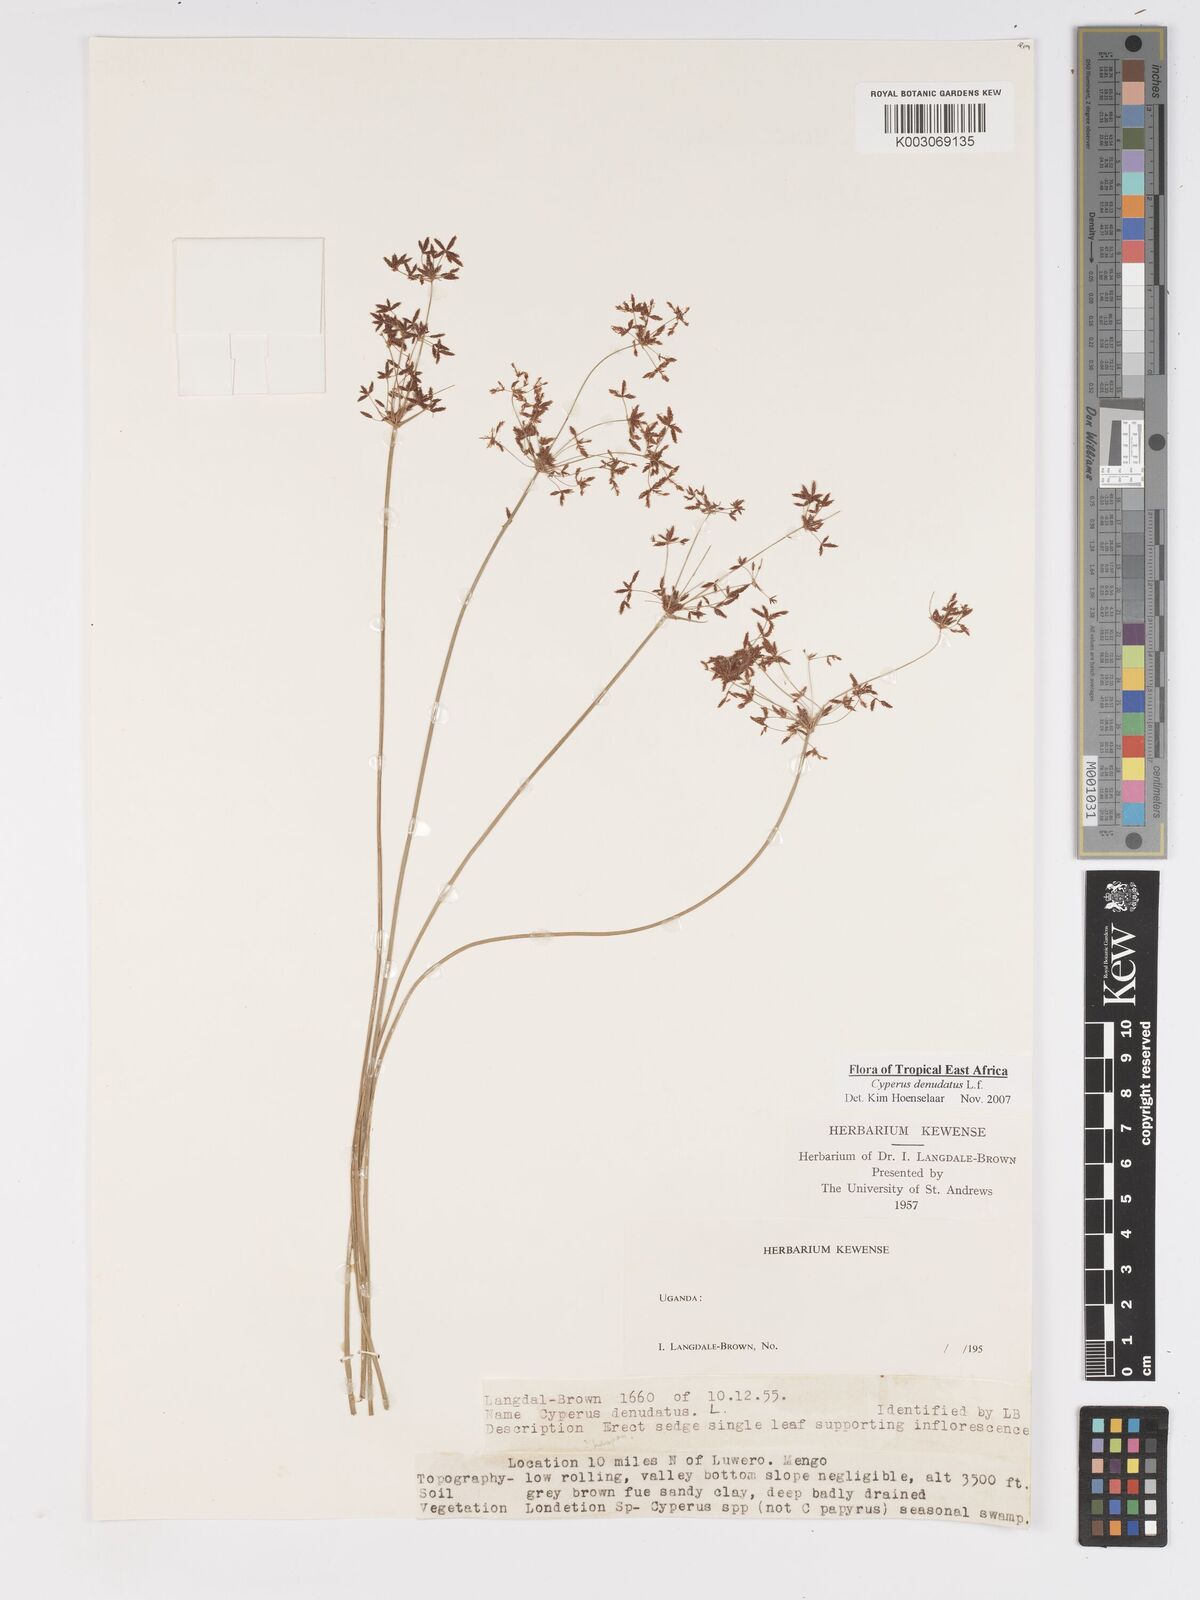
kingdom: Plantae
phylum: Tracheophyta
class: Liliopsida
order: Poales
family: Cyperaceae
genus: Cyperus
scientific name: Cyperus platycaulis
